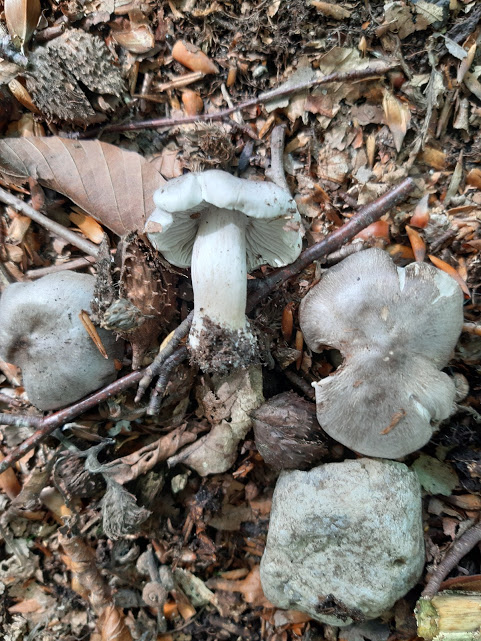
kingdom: Fungi
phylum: Basidiomycota
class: Agaricomycetes
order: Agaricales
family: Tricholomataceae
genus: Tricholoma
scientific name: Tricholoma sciodes
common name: stribet ridderhat
